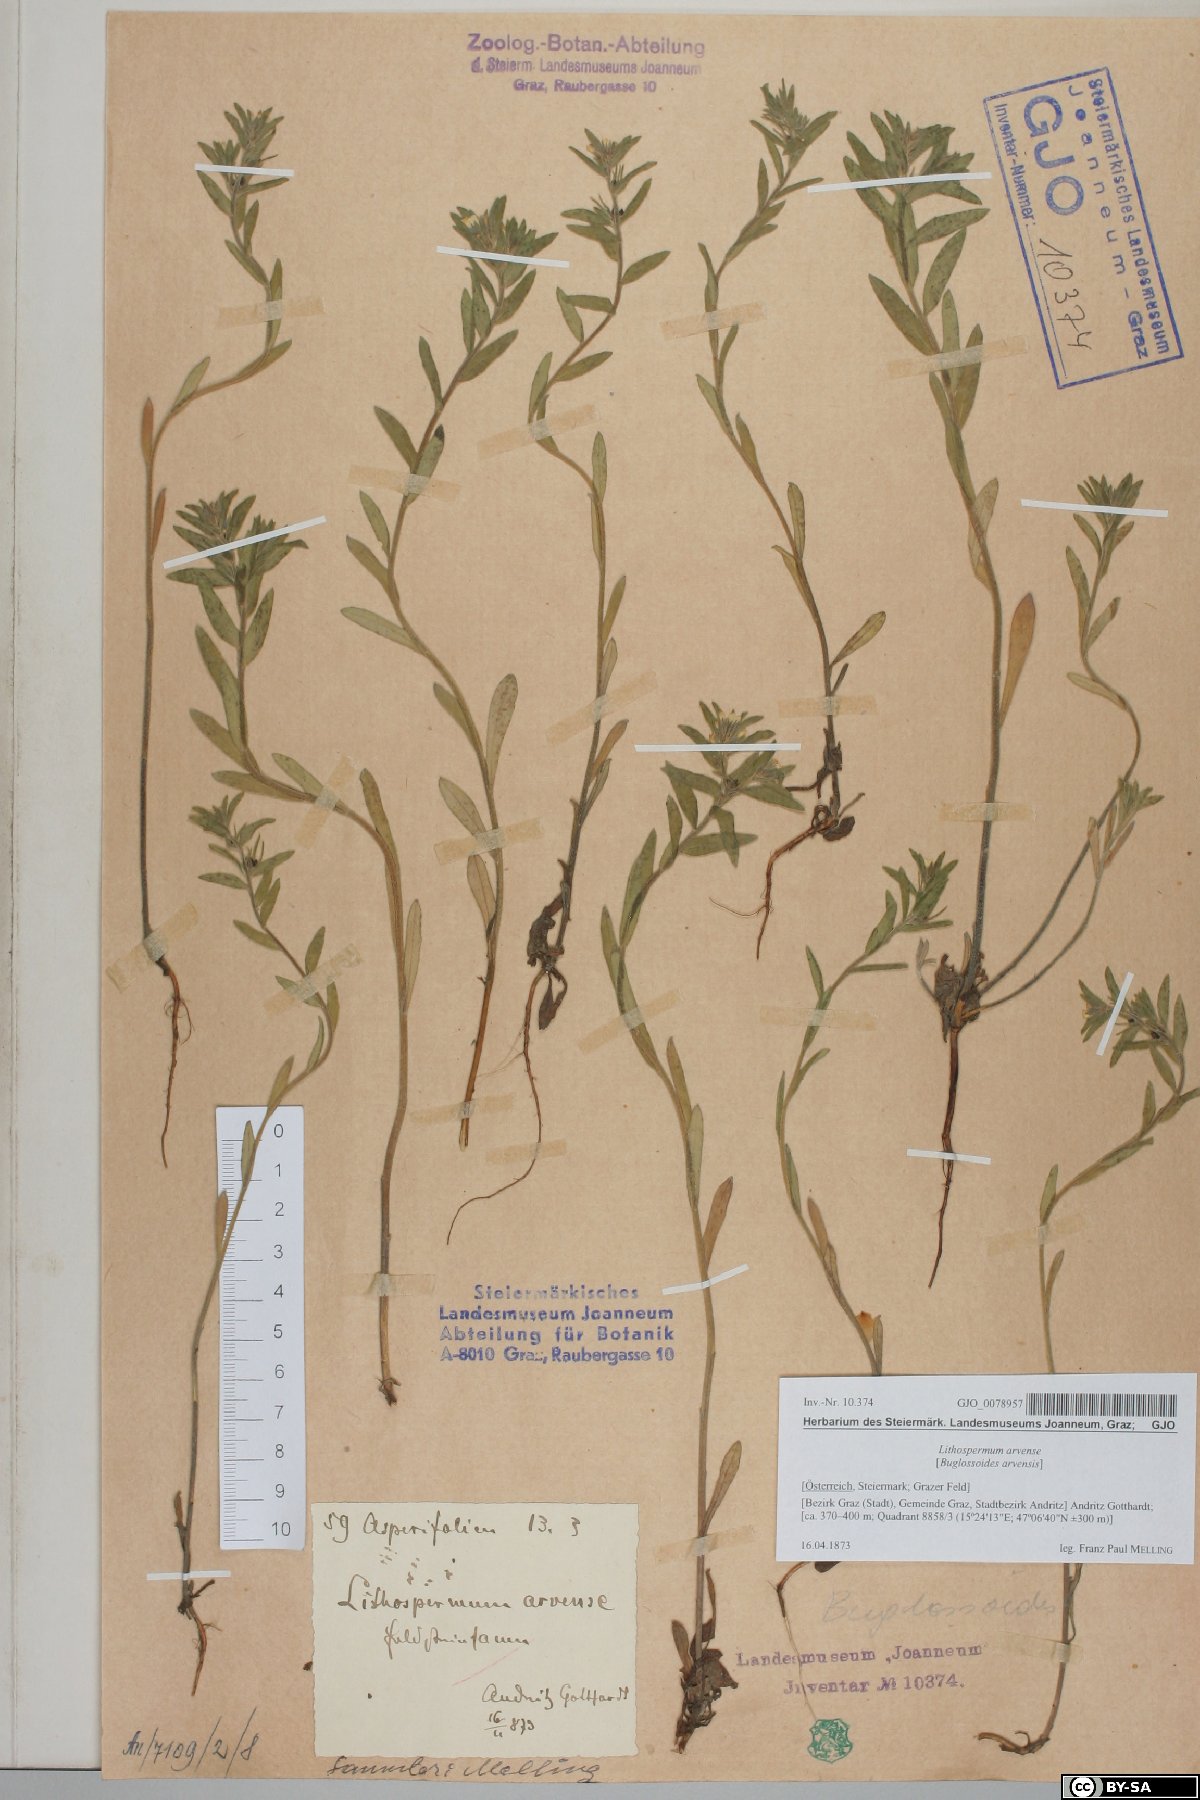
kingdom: Plantae
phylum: Tracheophyta
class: Magnoliopsida
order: Boraginales
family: Boraginaceae
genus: Buglossoides
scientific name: Buglossoides arvensis
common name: Corn gromwell
